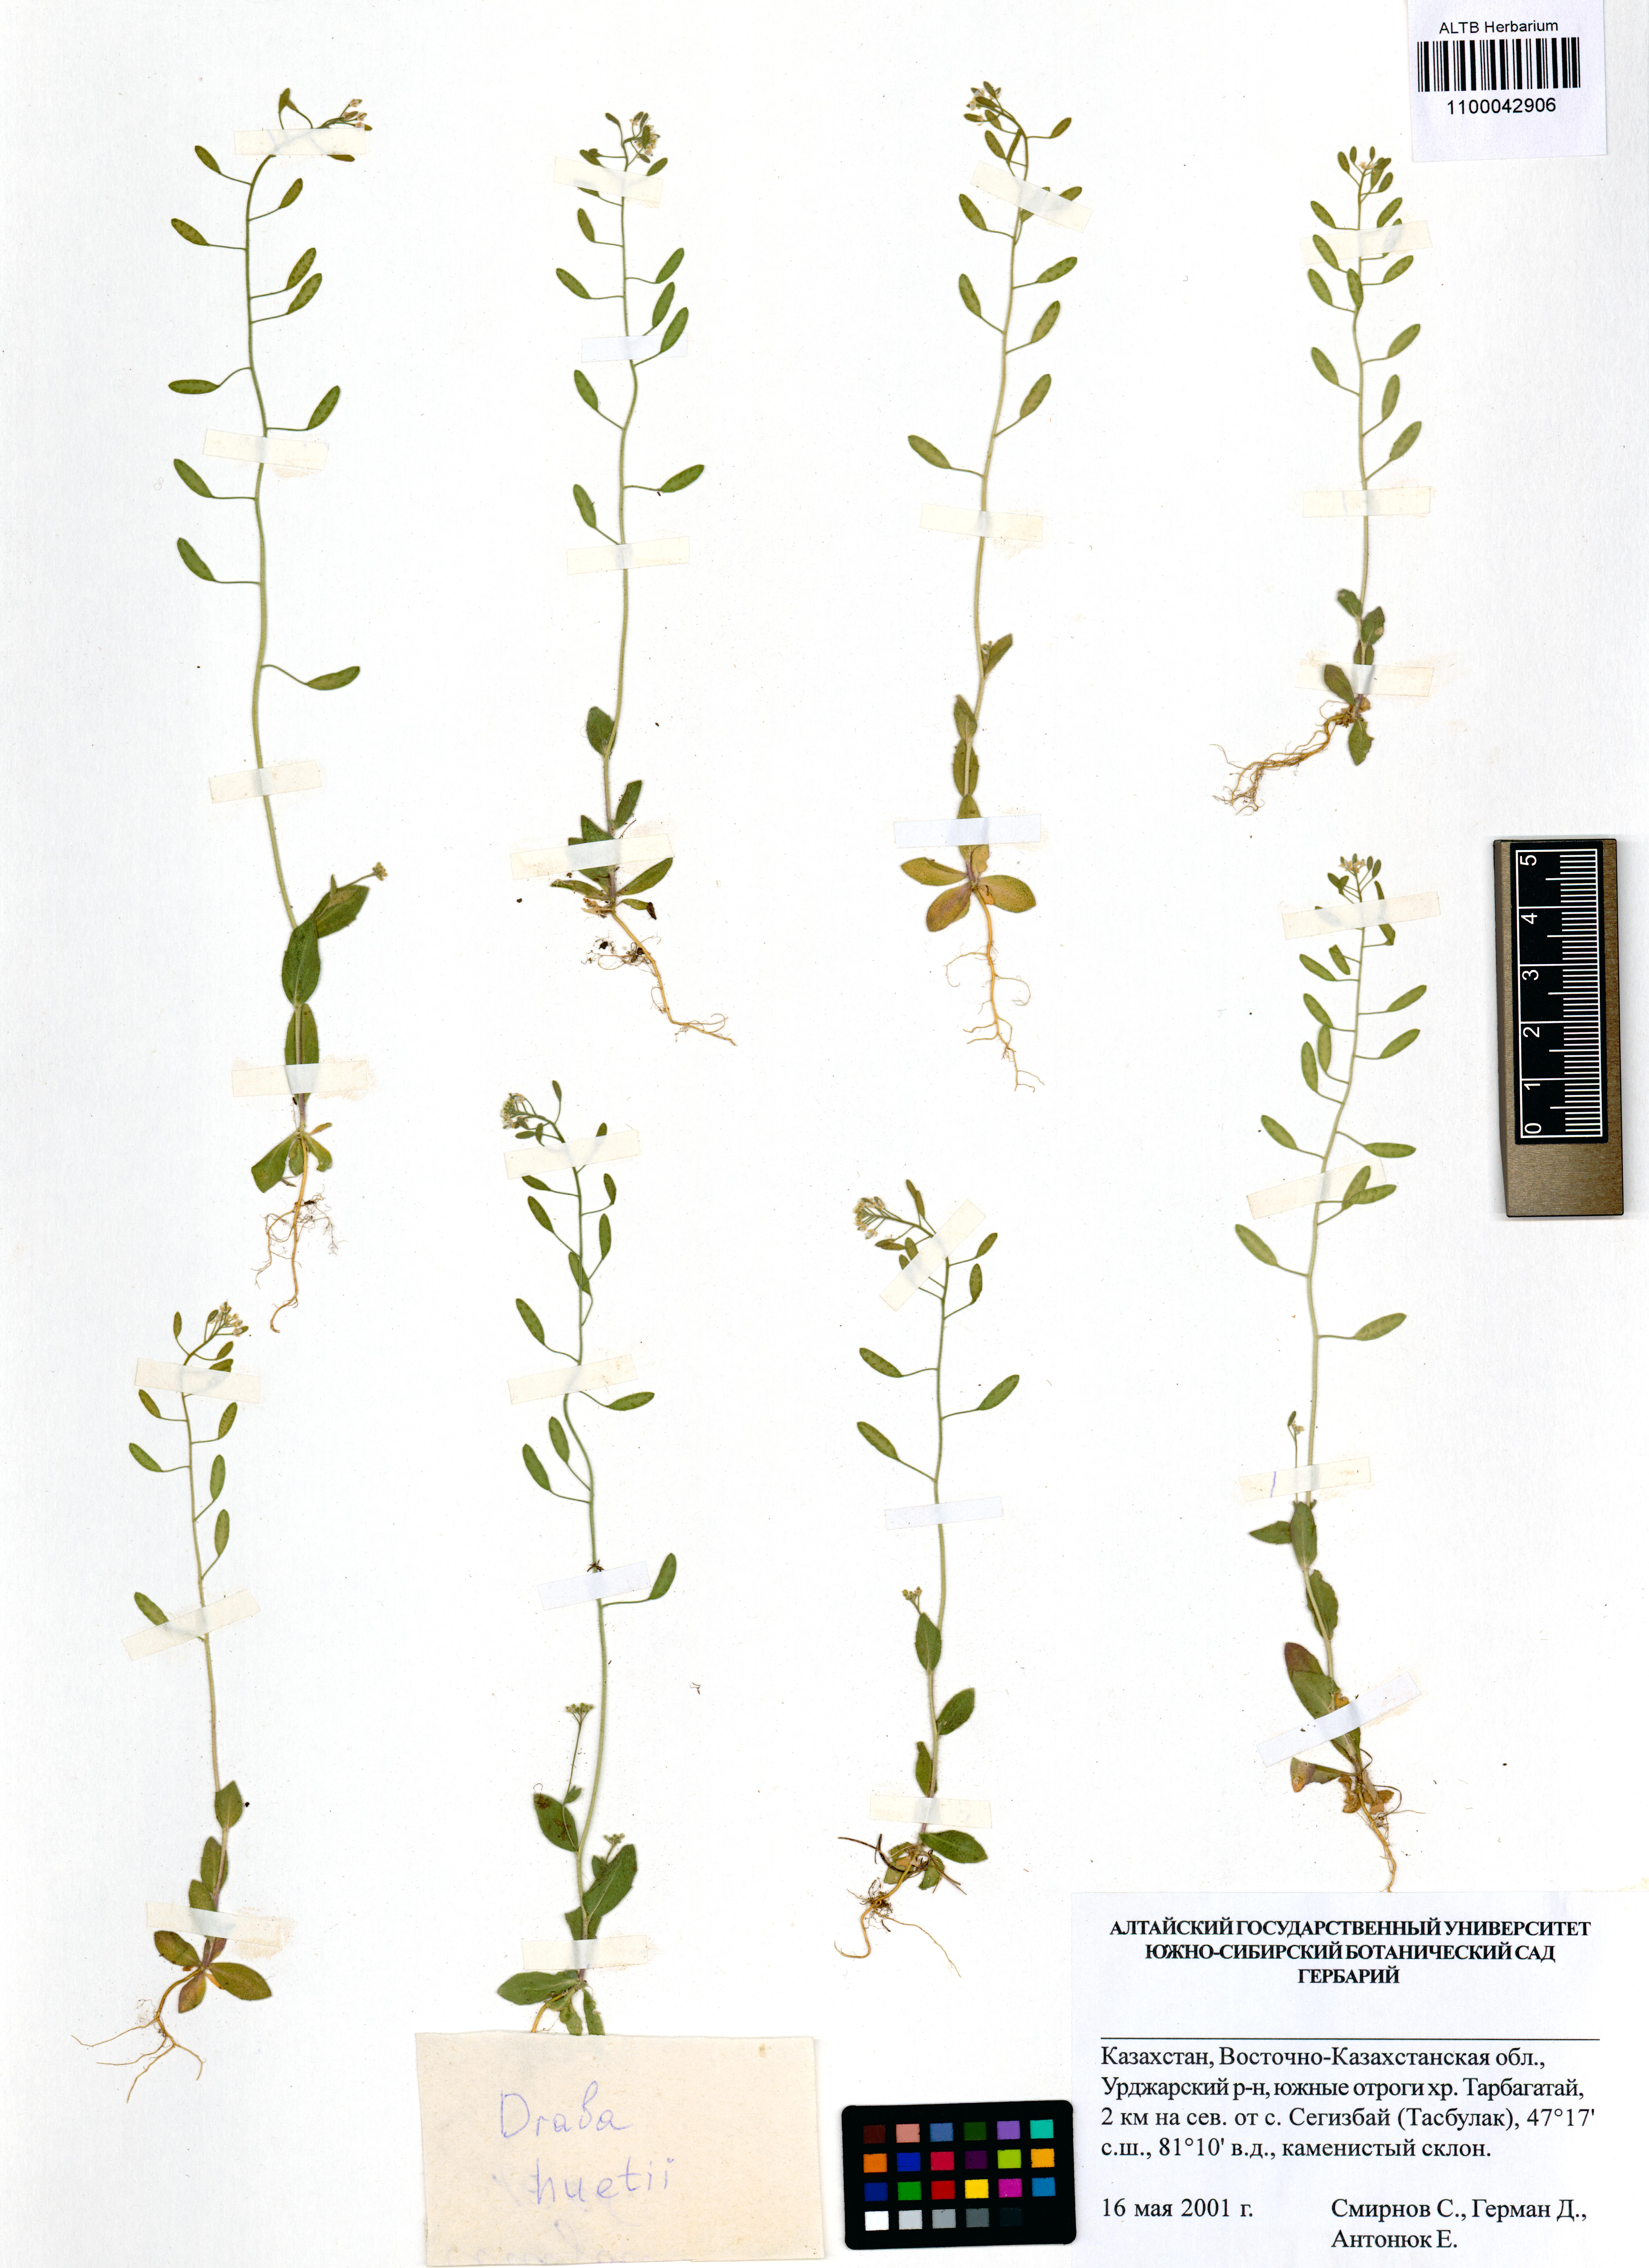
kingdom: Plantae
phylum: Tracheophyta
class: Magnoliopsida
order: Brassicales
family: Brassicaceae
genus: Draba
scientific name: Draba huetii
